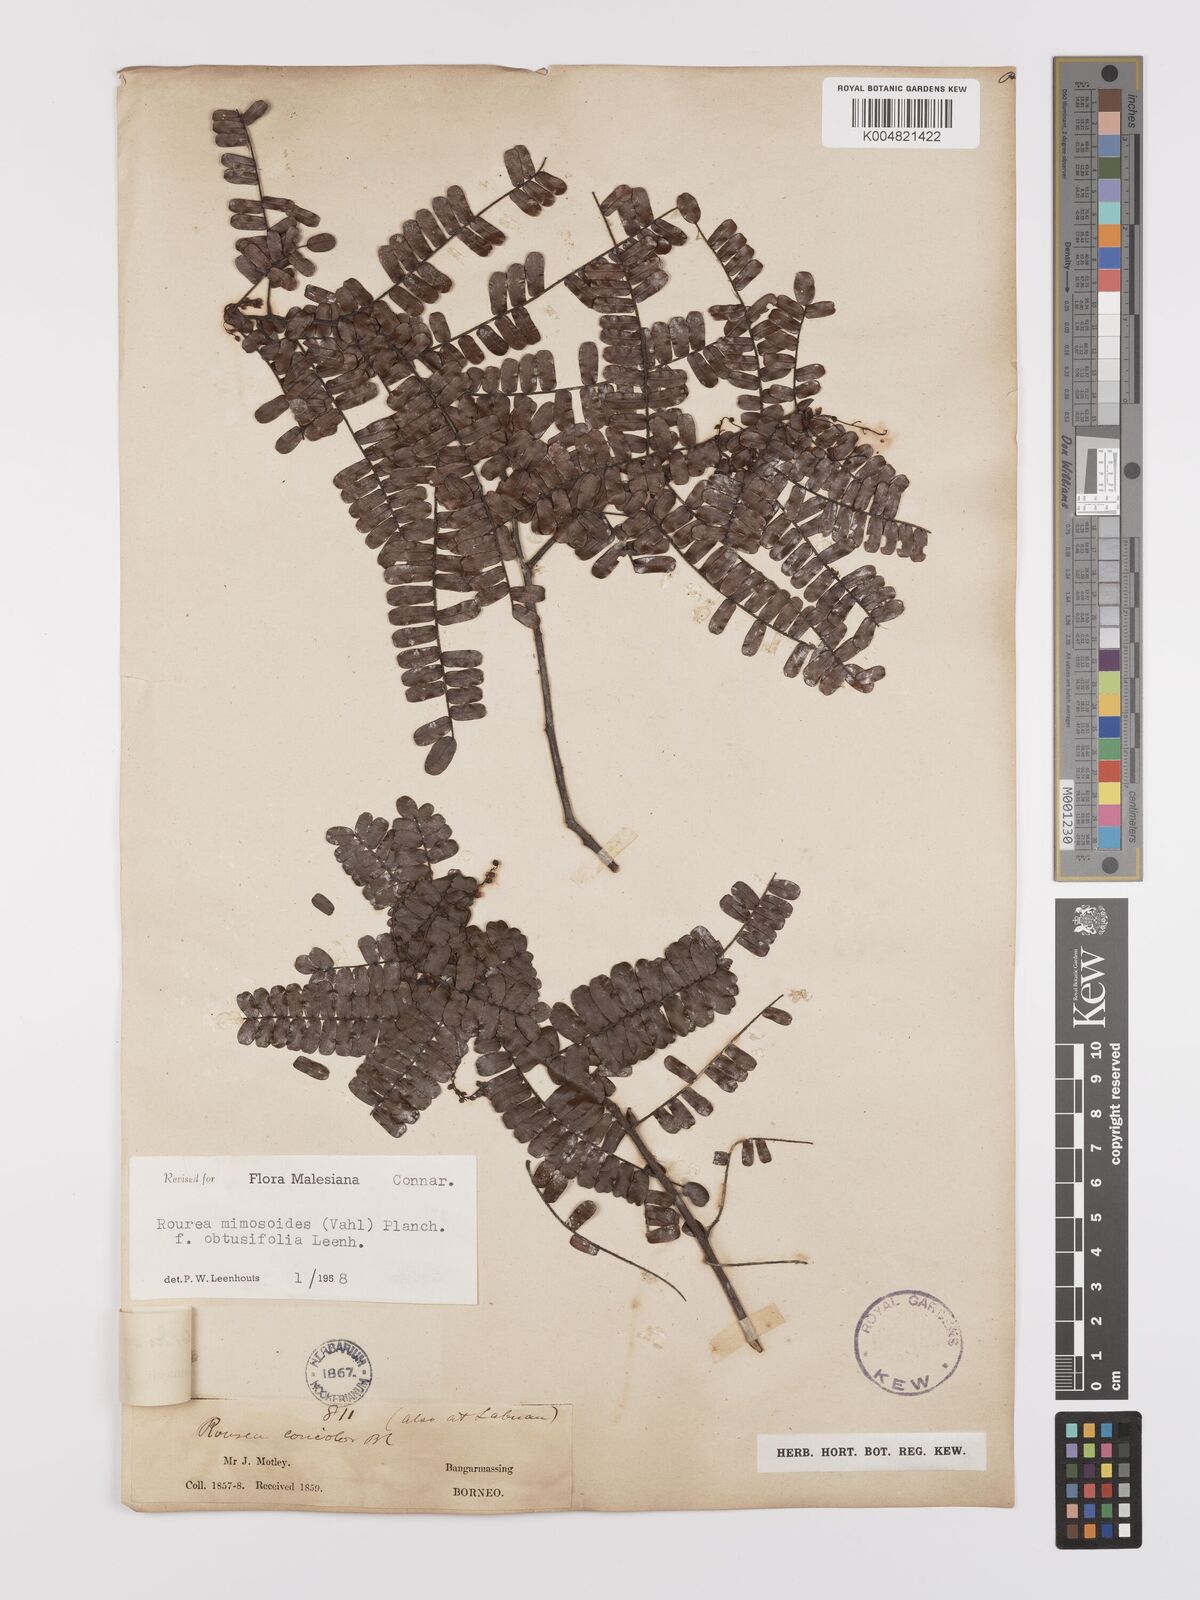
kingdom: Plantae
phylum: Tracheophyta
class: Magnoliopsida
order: Oxalidales
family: Connaraceae
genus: Rourea
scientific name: Rourea mimosoides
